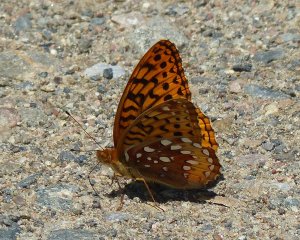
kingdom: Animalia
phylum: Arthropoda
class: Insecta
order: Lepidoptera
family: Nymphalidae
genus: Speyeria
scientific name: Speyeria cybele
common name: Great Spangled Fritillary
